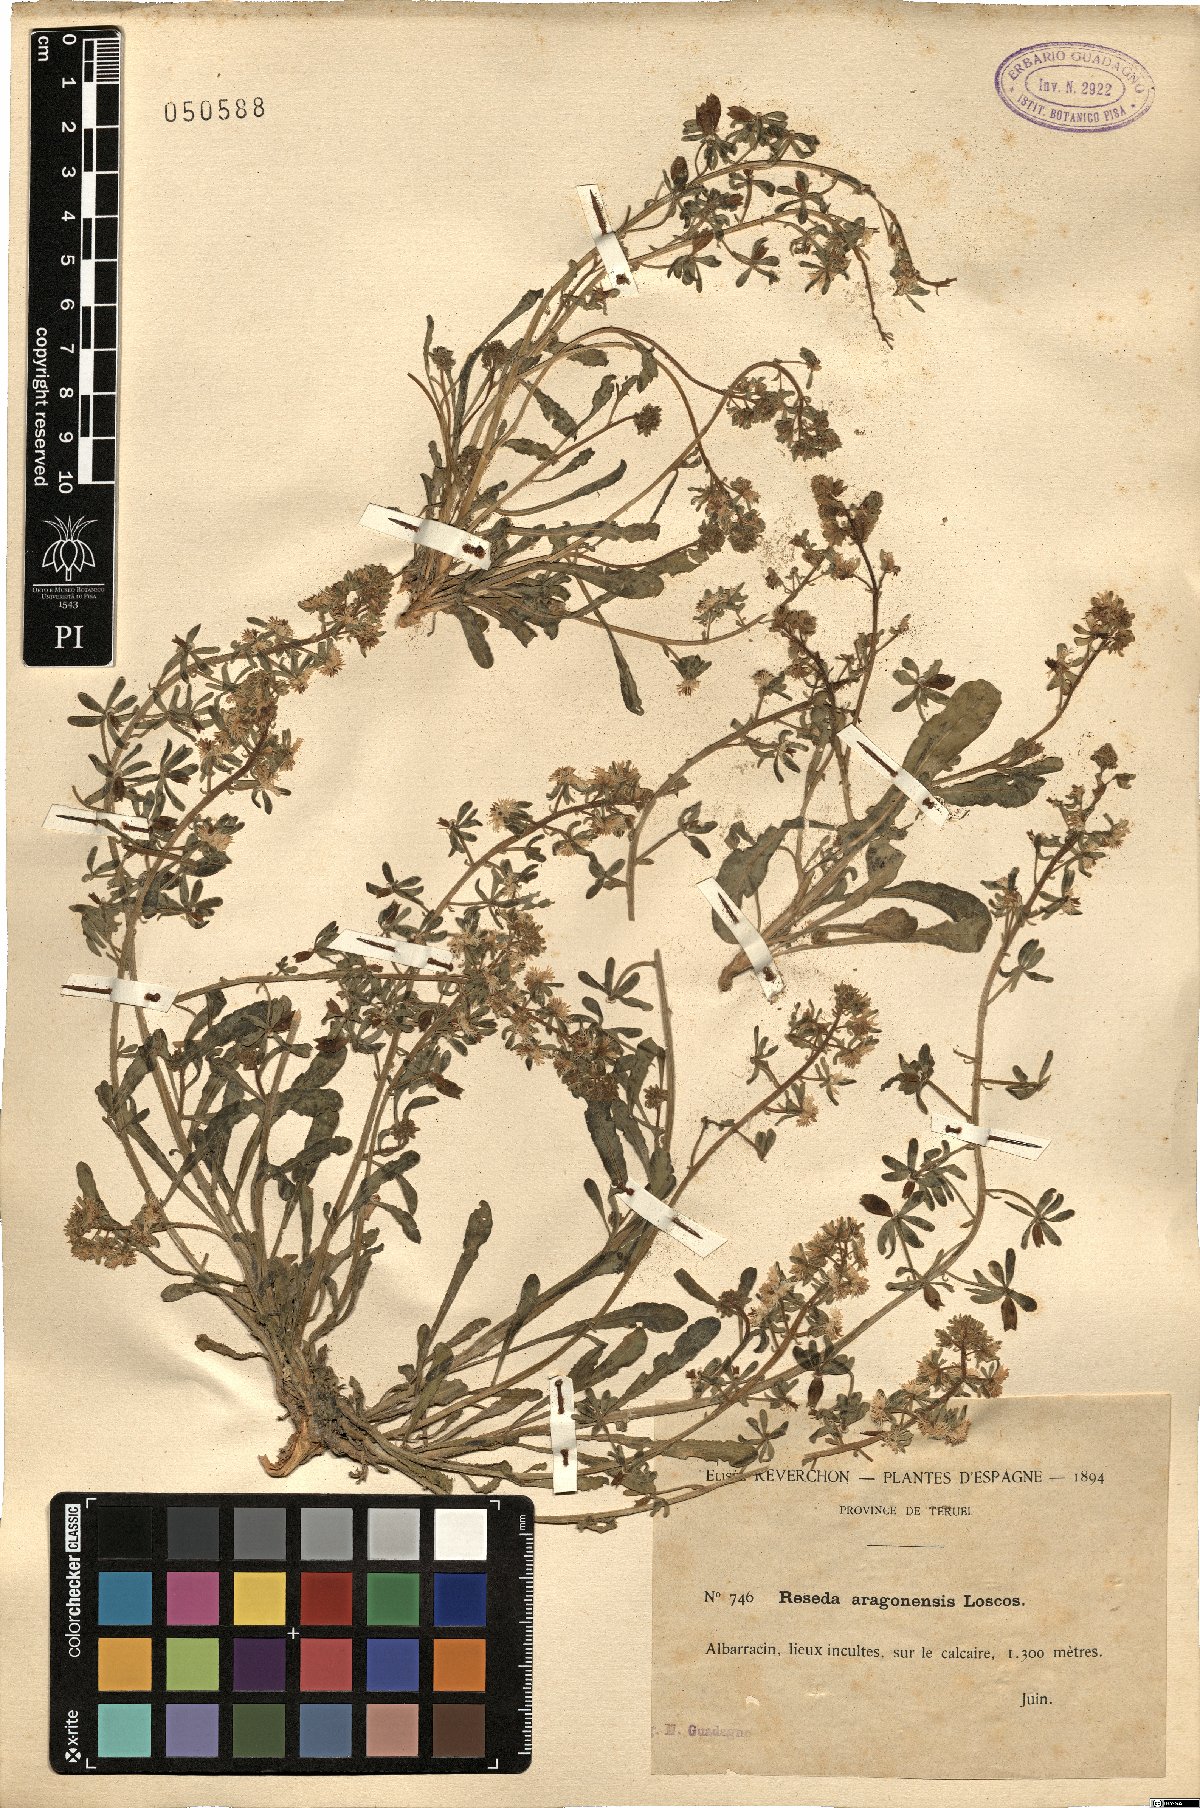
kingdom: Plantae
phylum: Tracheophyta
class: Magnoliopsida
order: Brassicales
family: Resedaceae
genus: Reseda
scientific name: Reseda phyteuma
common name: Corn mignonette
